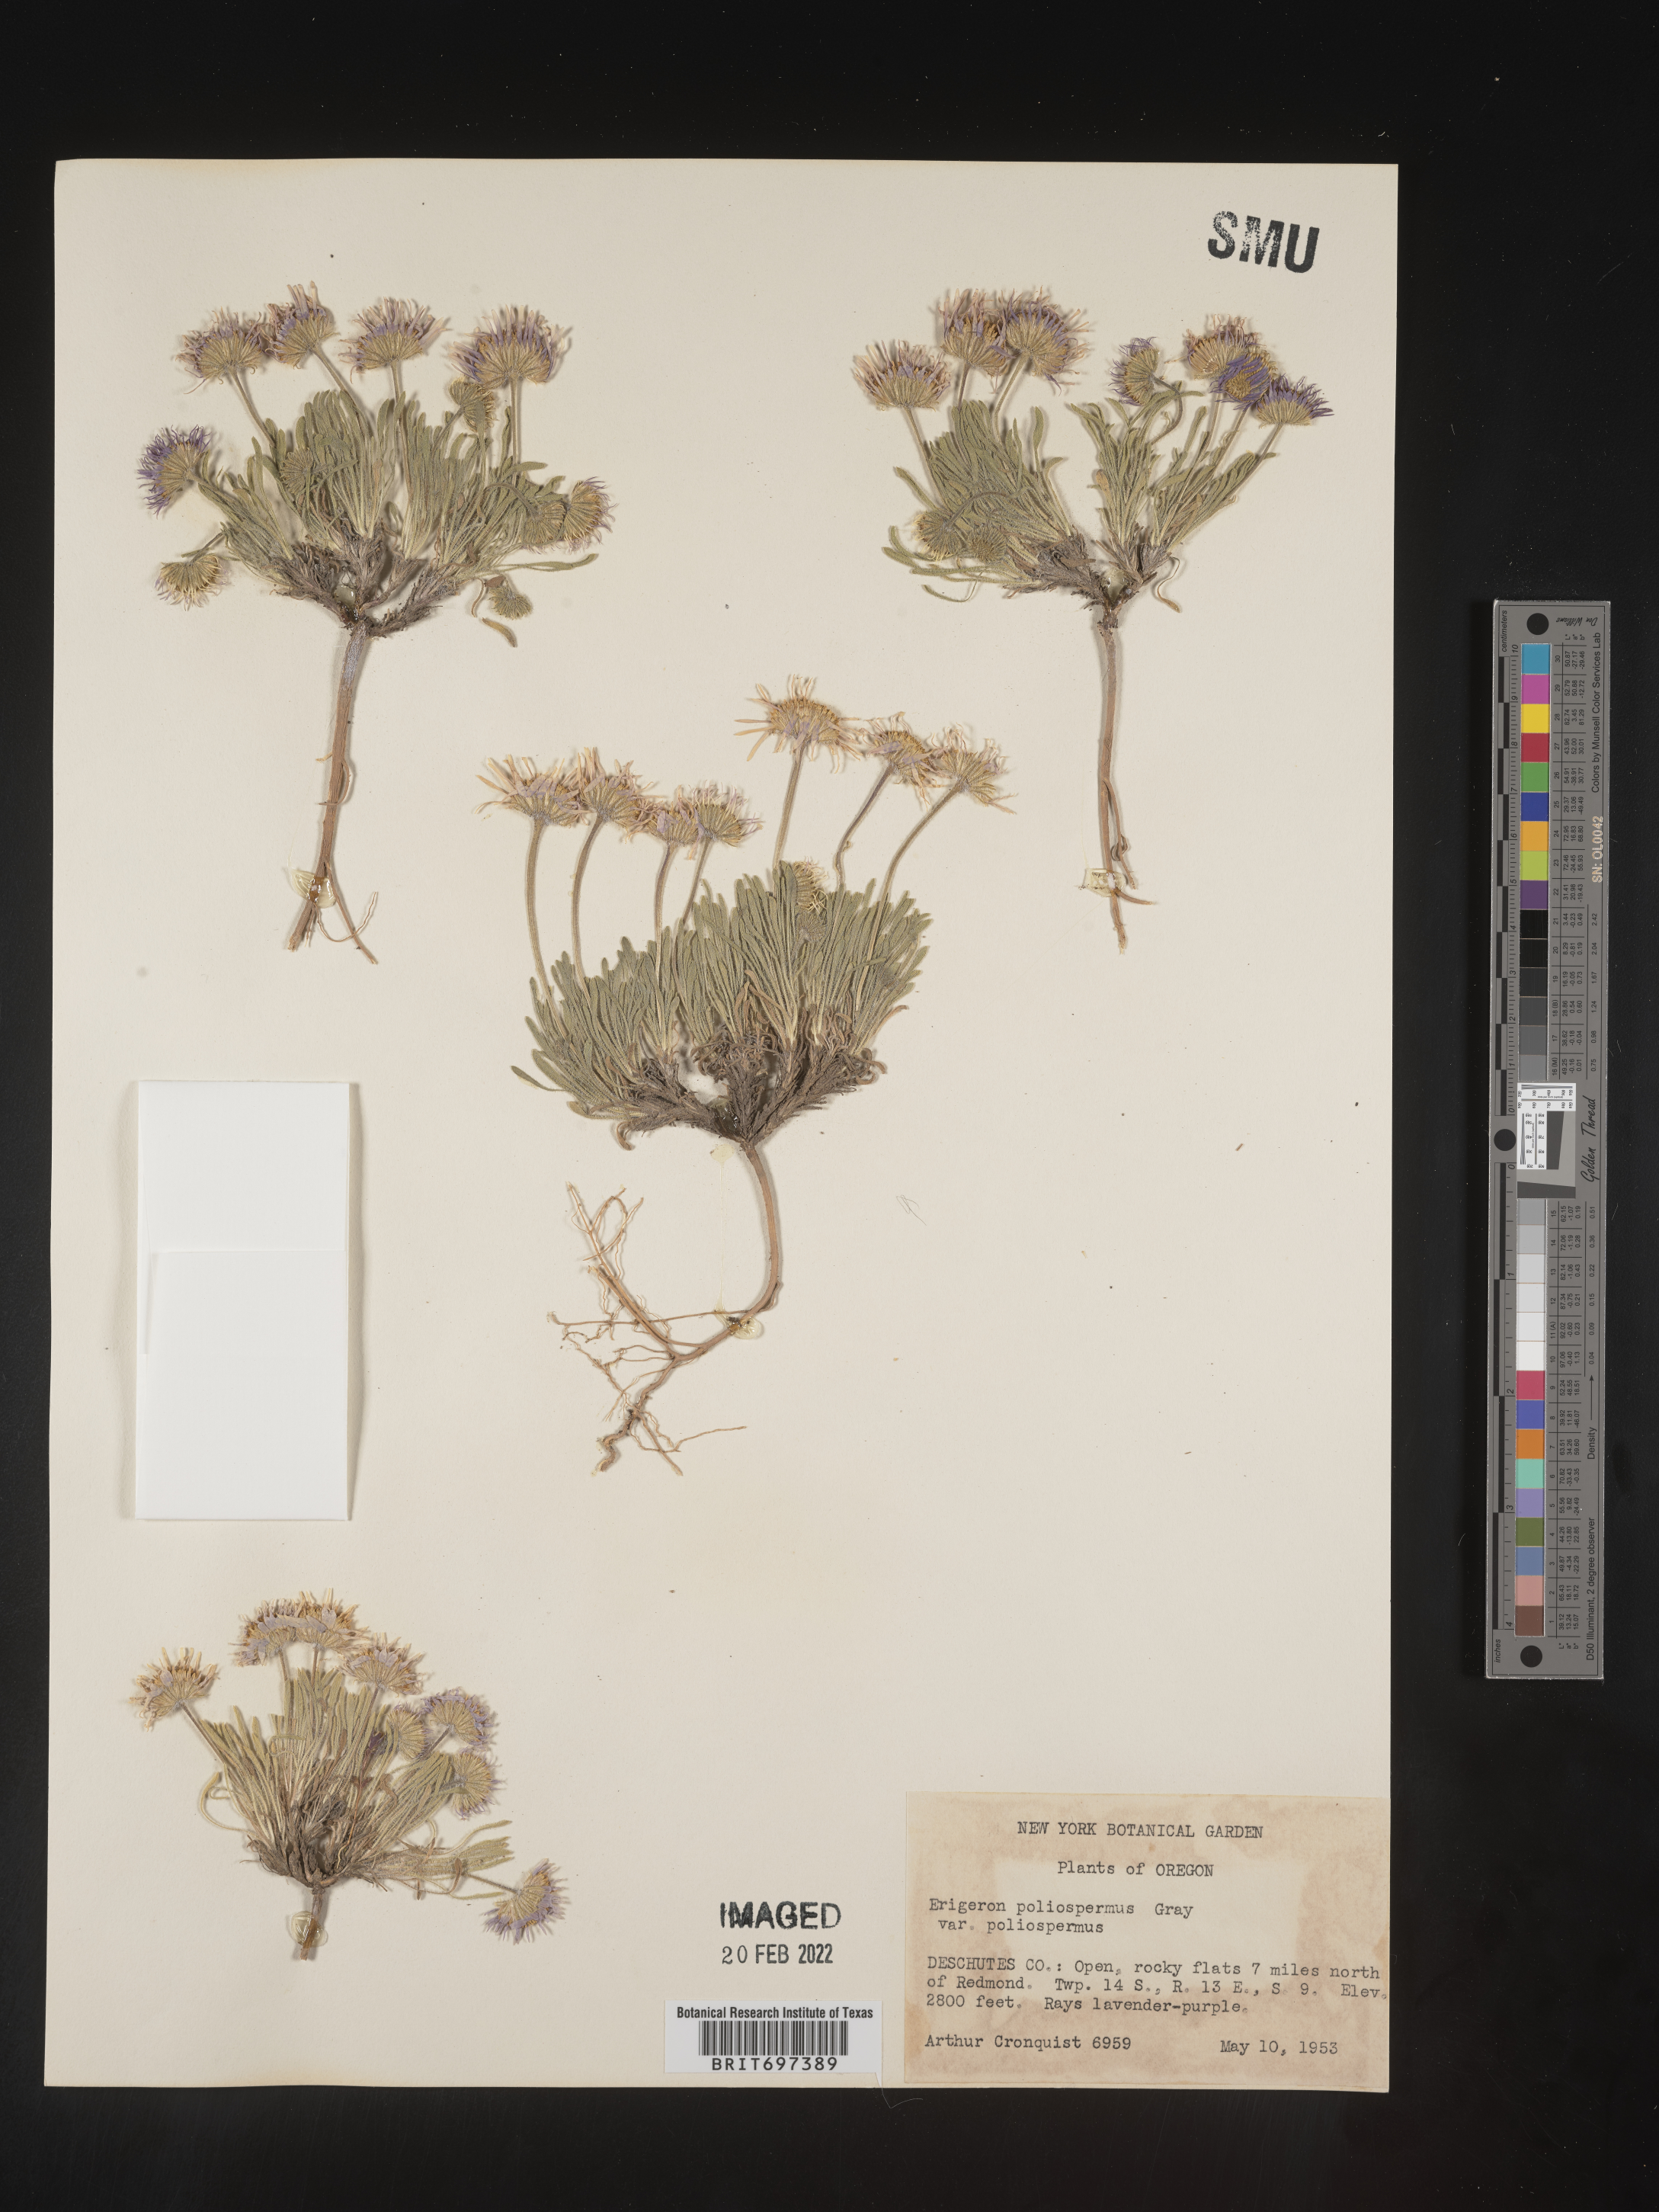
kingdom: Plantae
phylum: Tracheophyta
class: Magnoliopsida
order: Asterales
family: Asteraceae
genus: Erigeron
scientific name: Erigeron poliospermus
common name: Cushion fleabane
